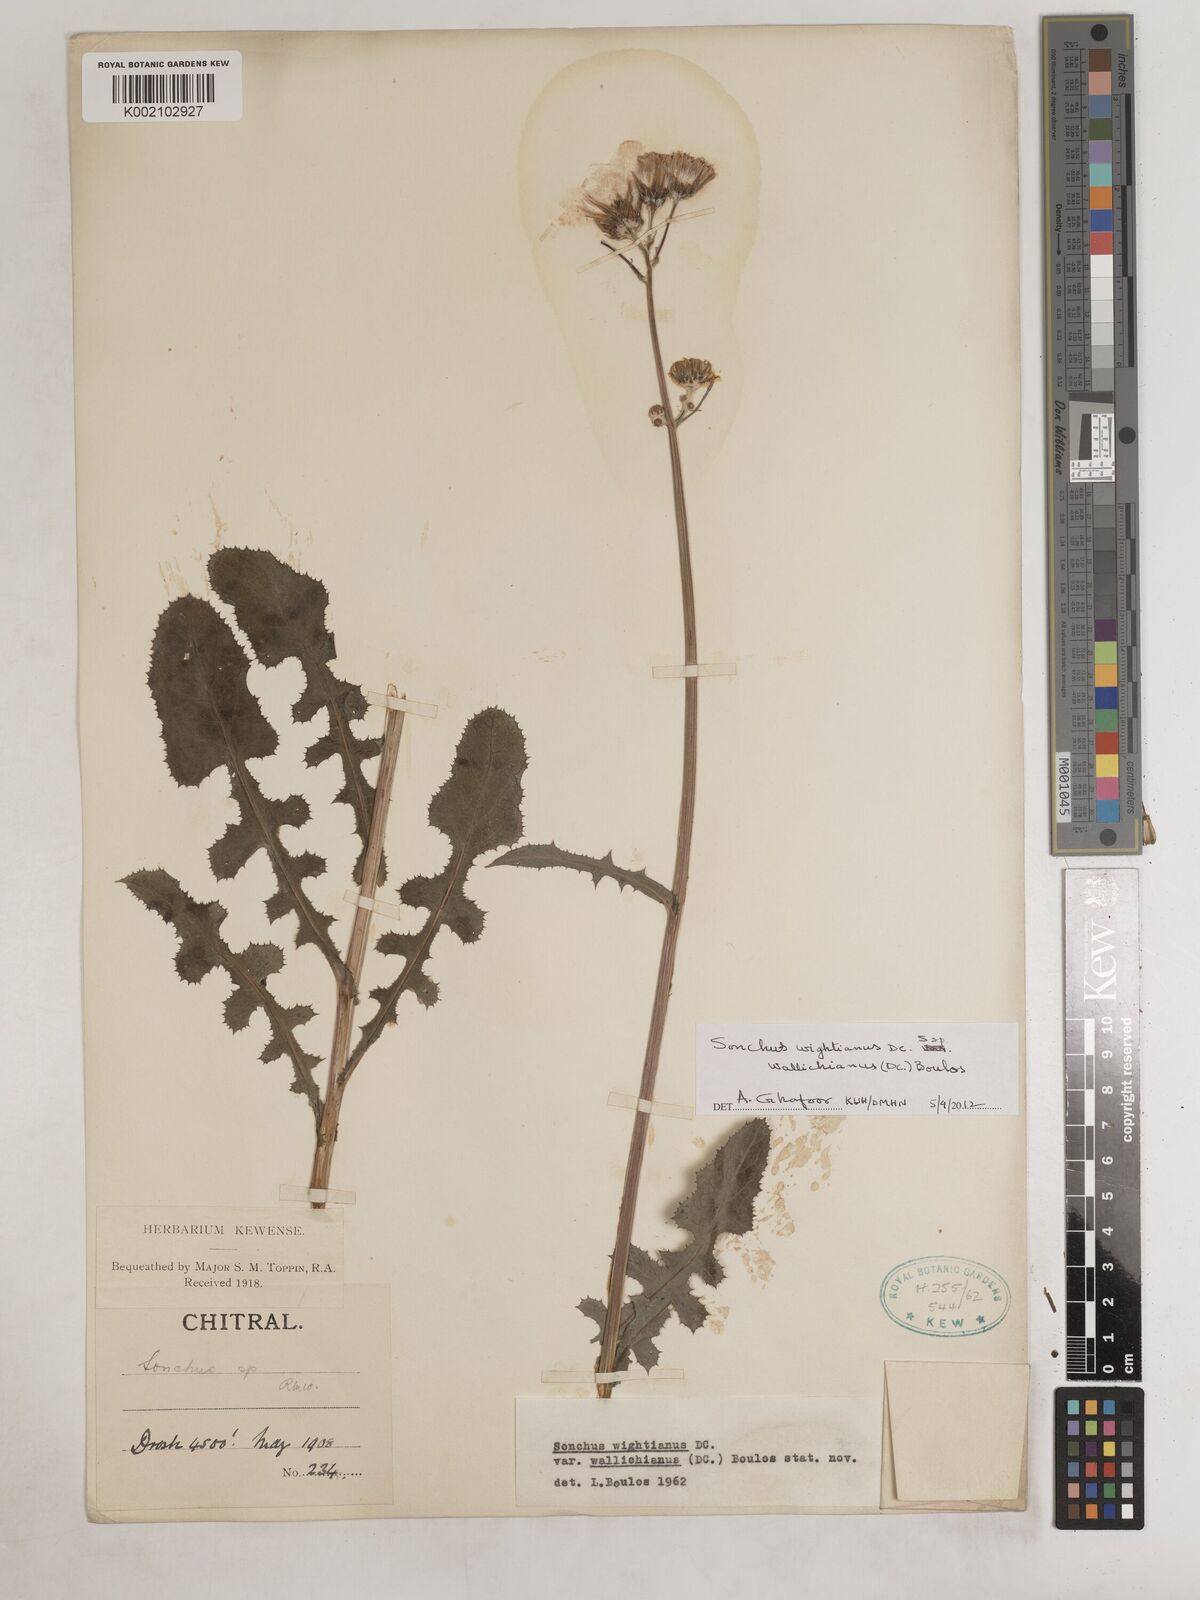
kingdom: Plantae
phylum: Tracheophyta
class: Magnoliopsida
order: Asterales
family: Asteraceae
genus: Sonchus
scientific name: Sonchus arvensis
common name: Perennial sow-thistle
